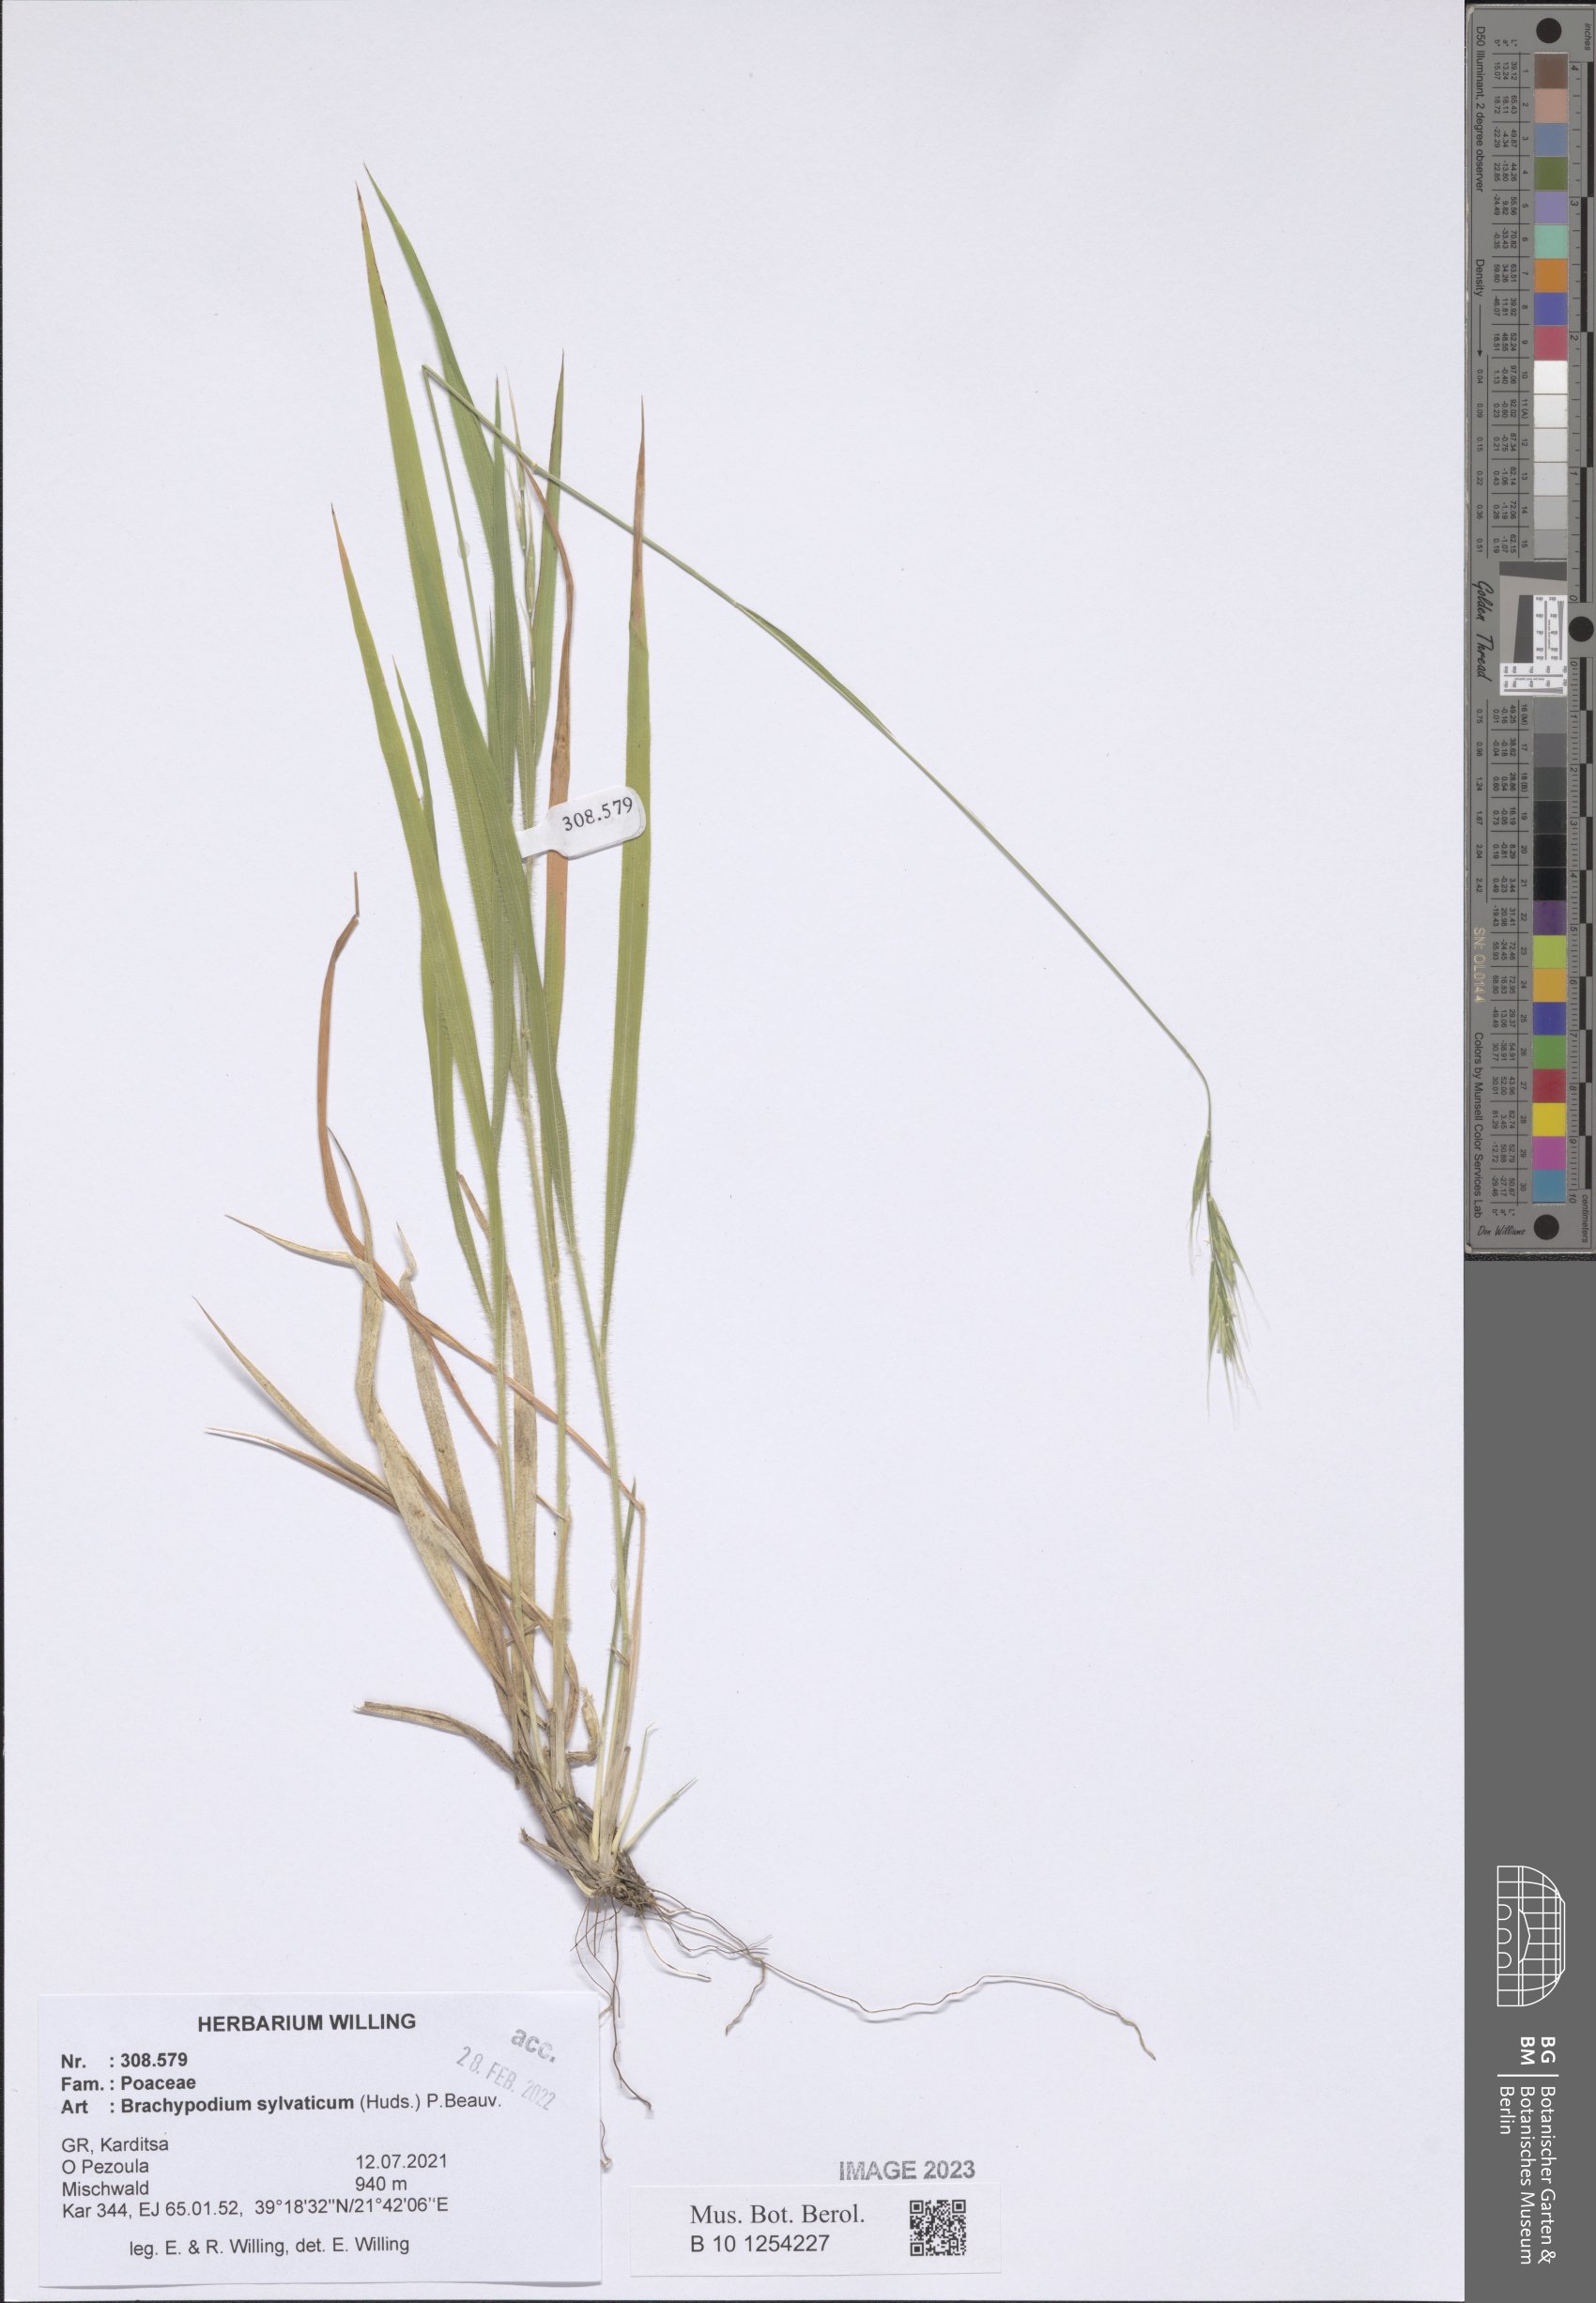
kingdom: Plantae
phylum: Tracheophyta
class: Liliopsida
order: Poales
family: Poaceae
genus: Brachypodium
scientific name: Brachypodium sylvaticum
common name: False-brome
